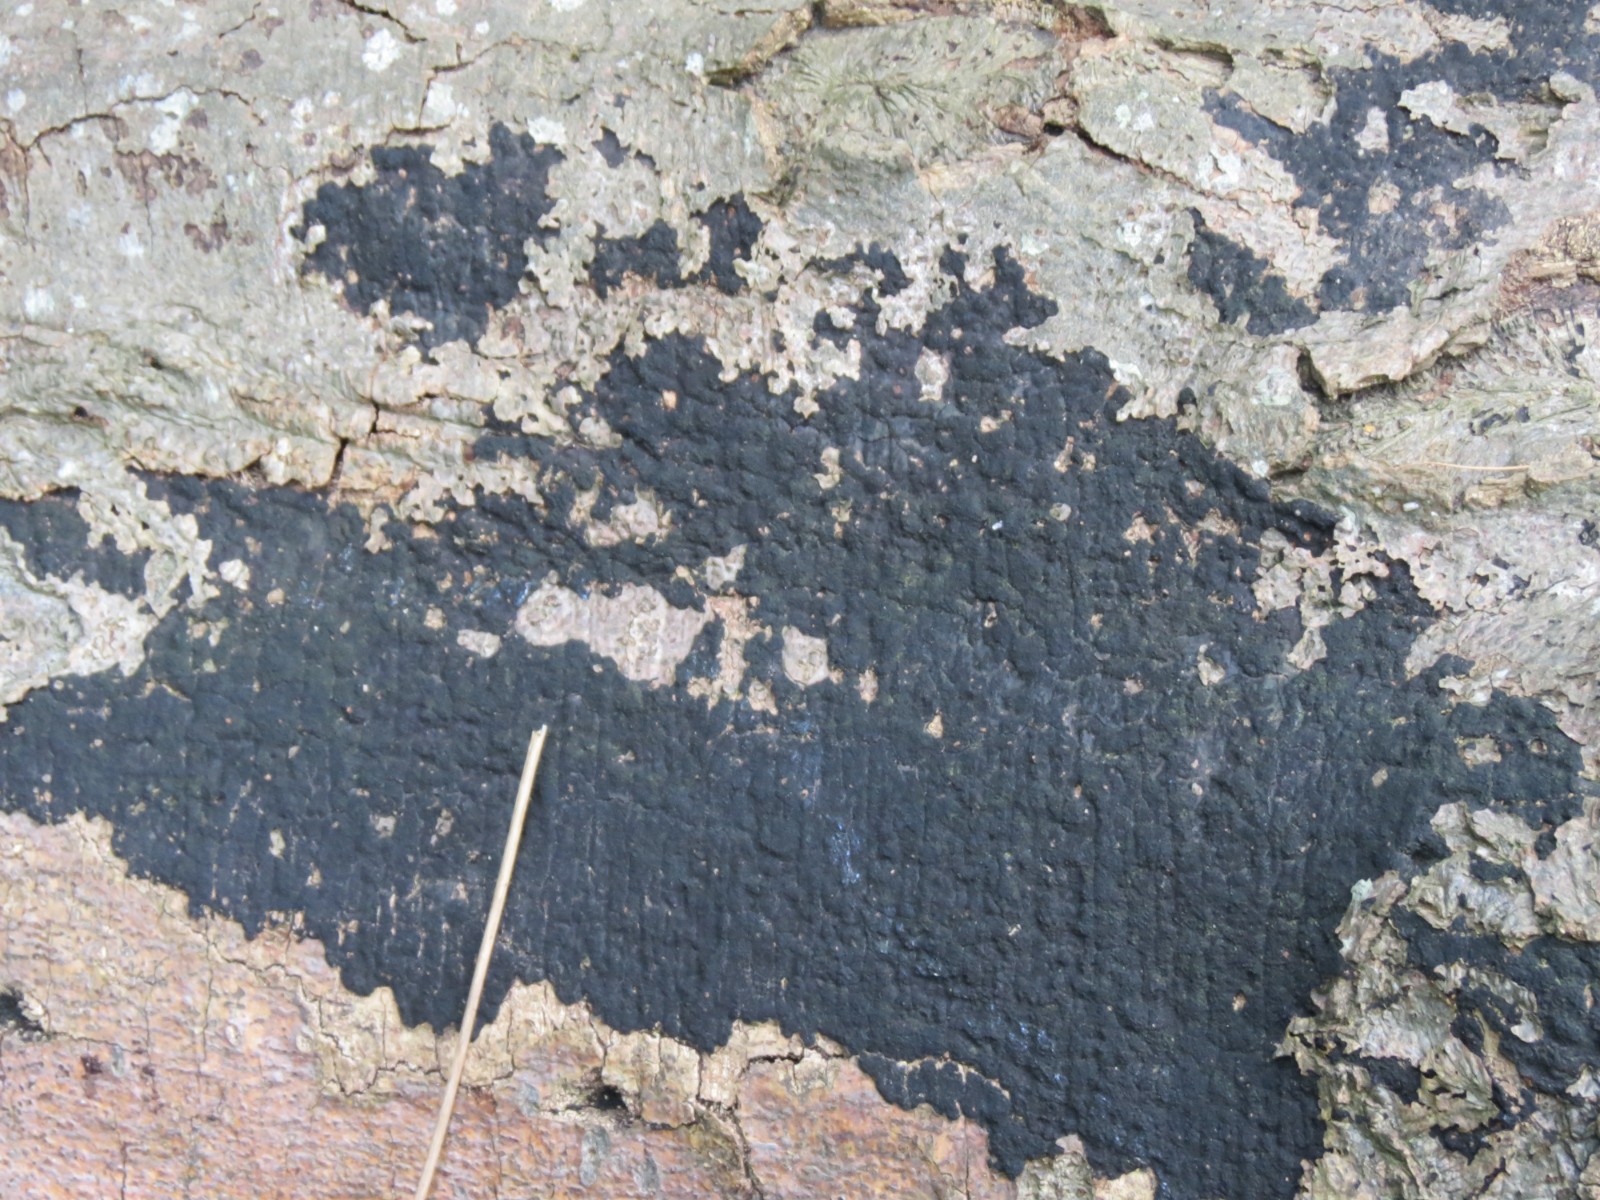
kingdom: Fungi
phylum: Ascomycota
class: Sordariomycetes
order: Xylariales
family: Diatrypaceae
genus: Eutypa
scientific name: Eutypa spinosa
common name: grov kulskorpe
